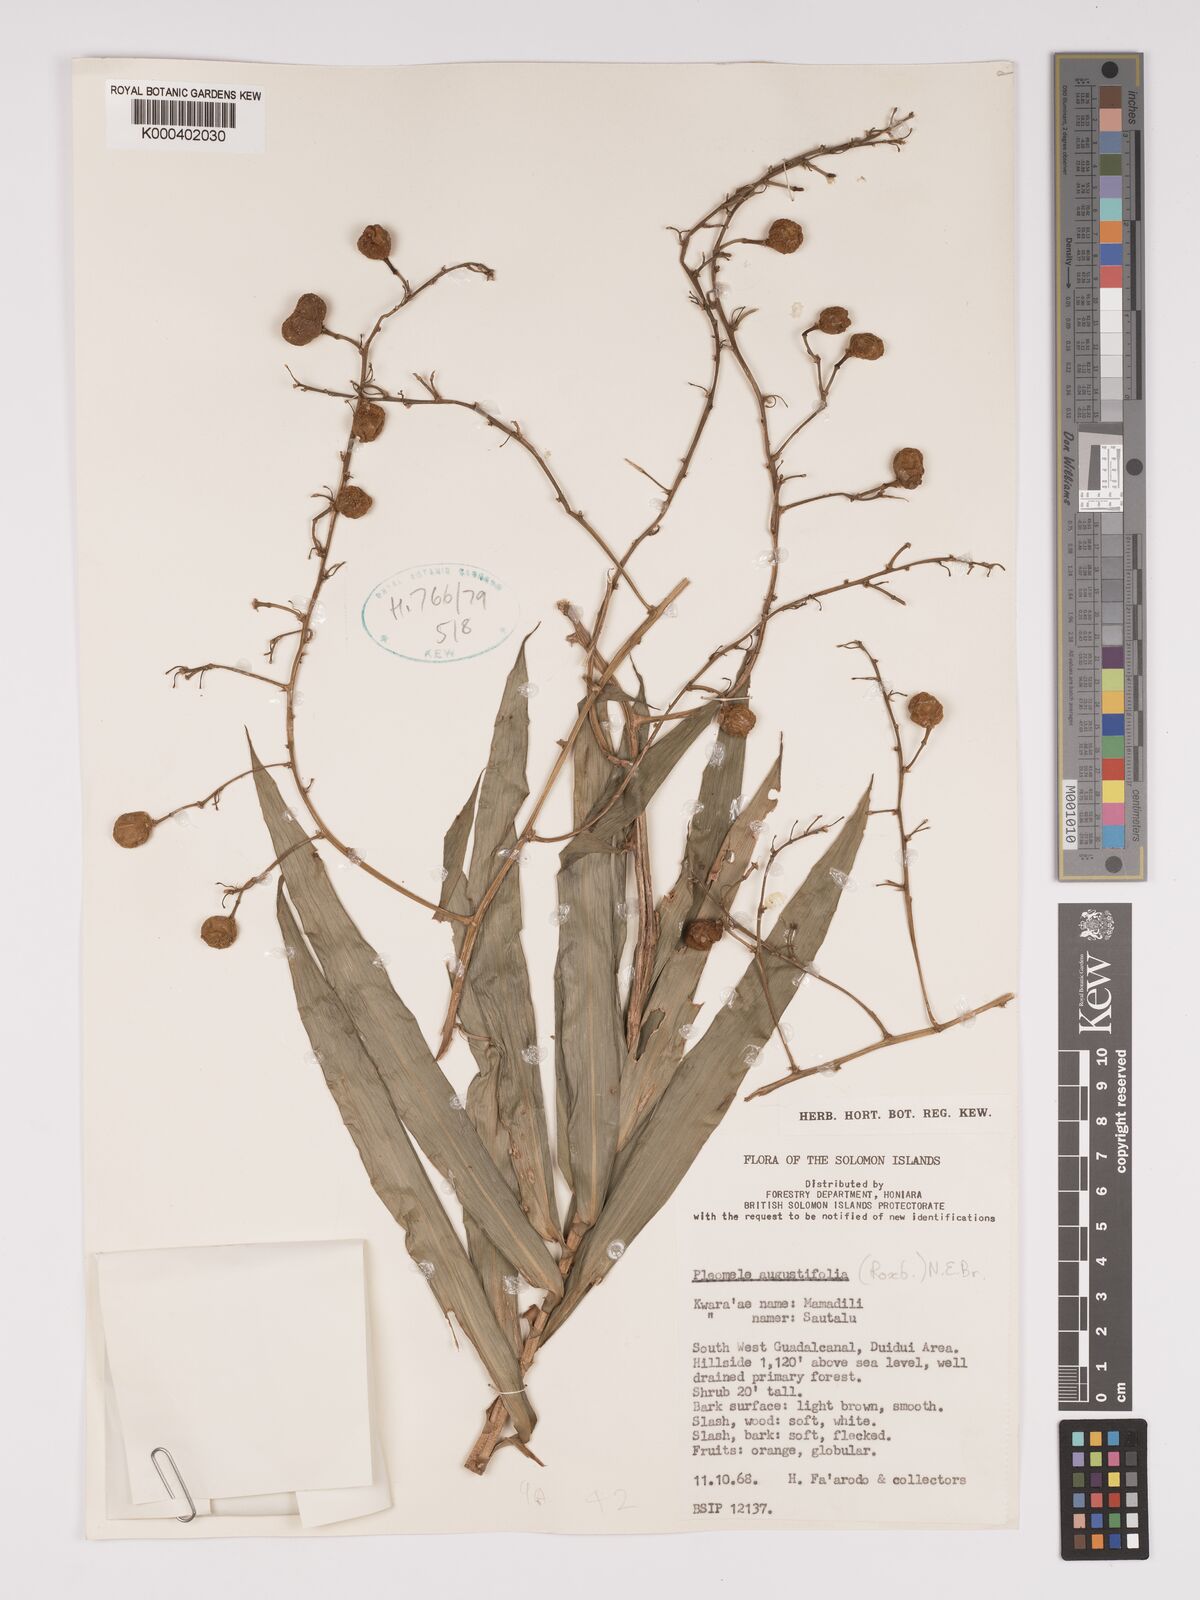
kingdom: Plantae
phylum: Tracheophyta
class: Liliopsida
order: Asparagales
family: Asparagaceae
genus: Dracaena
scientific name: Dracaena angustifolia
